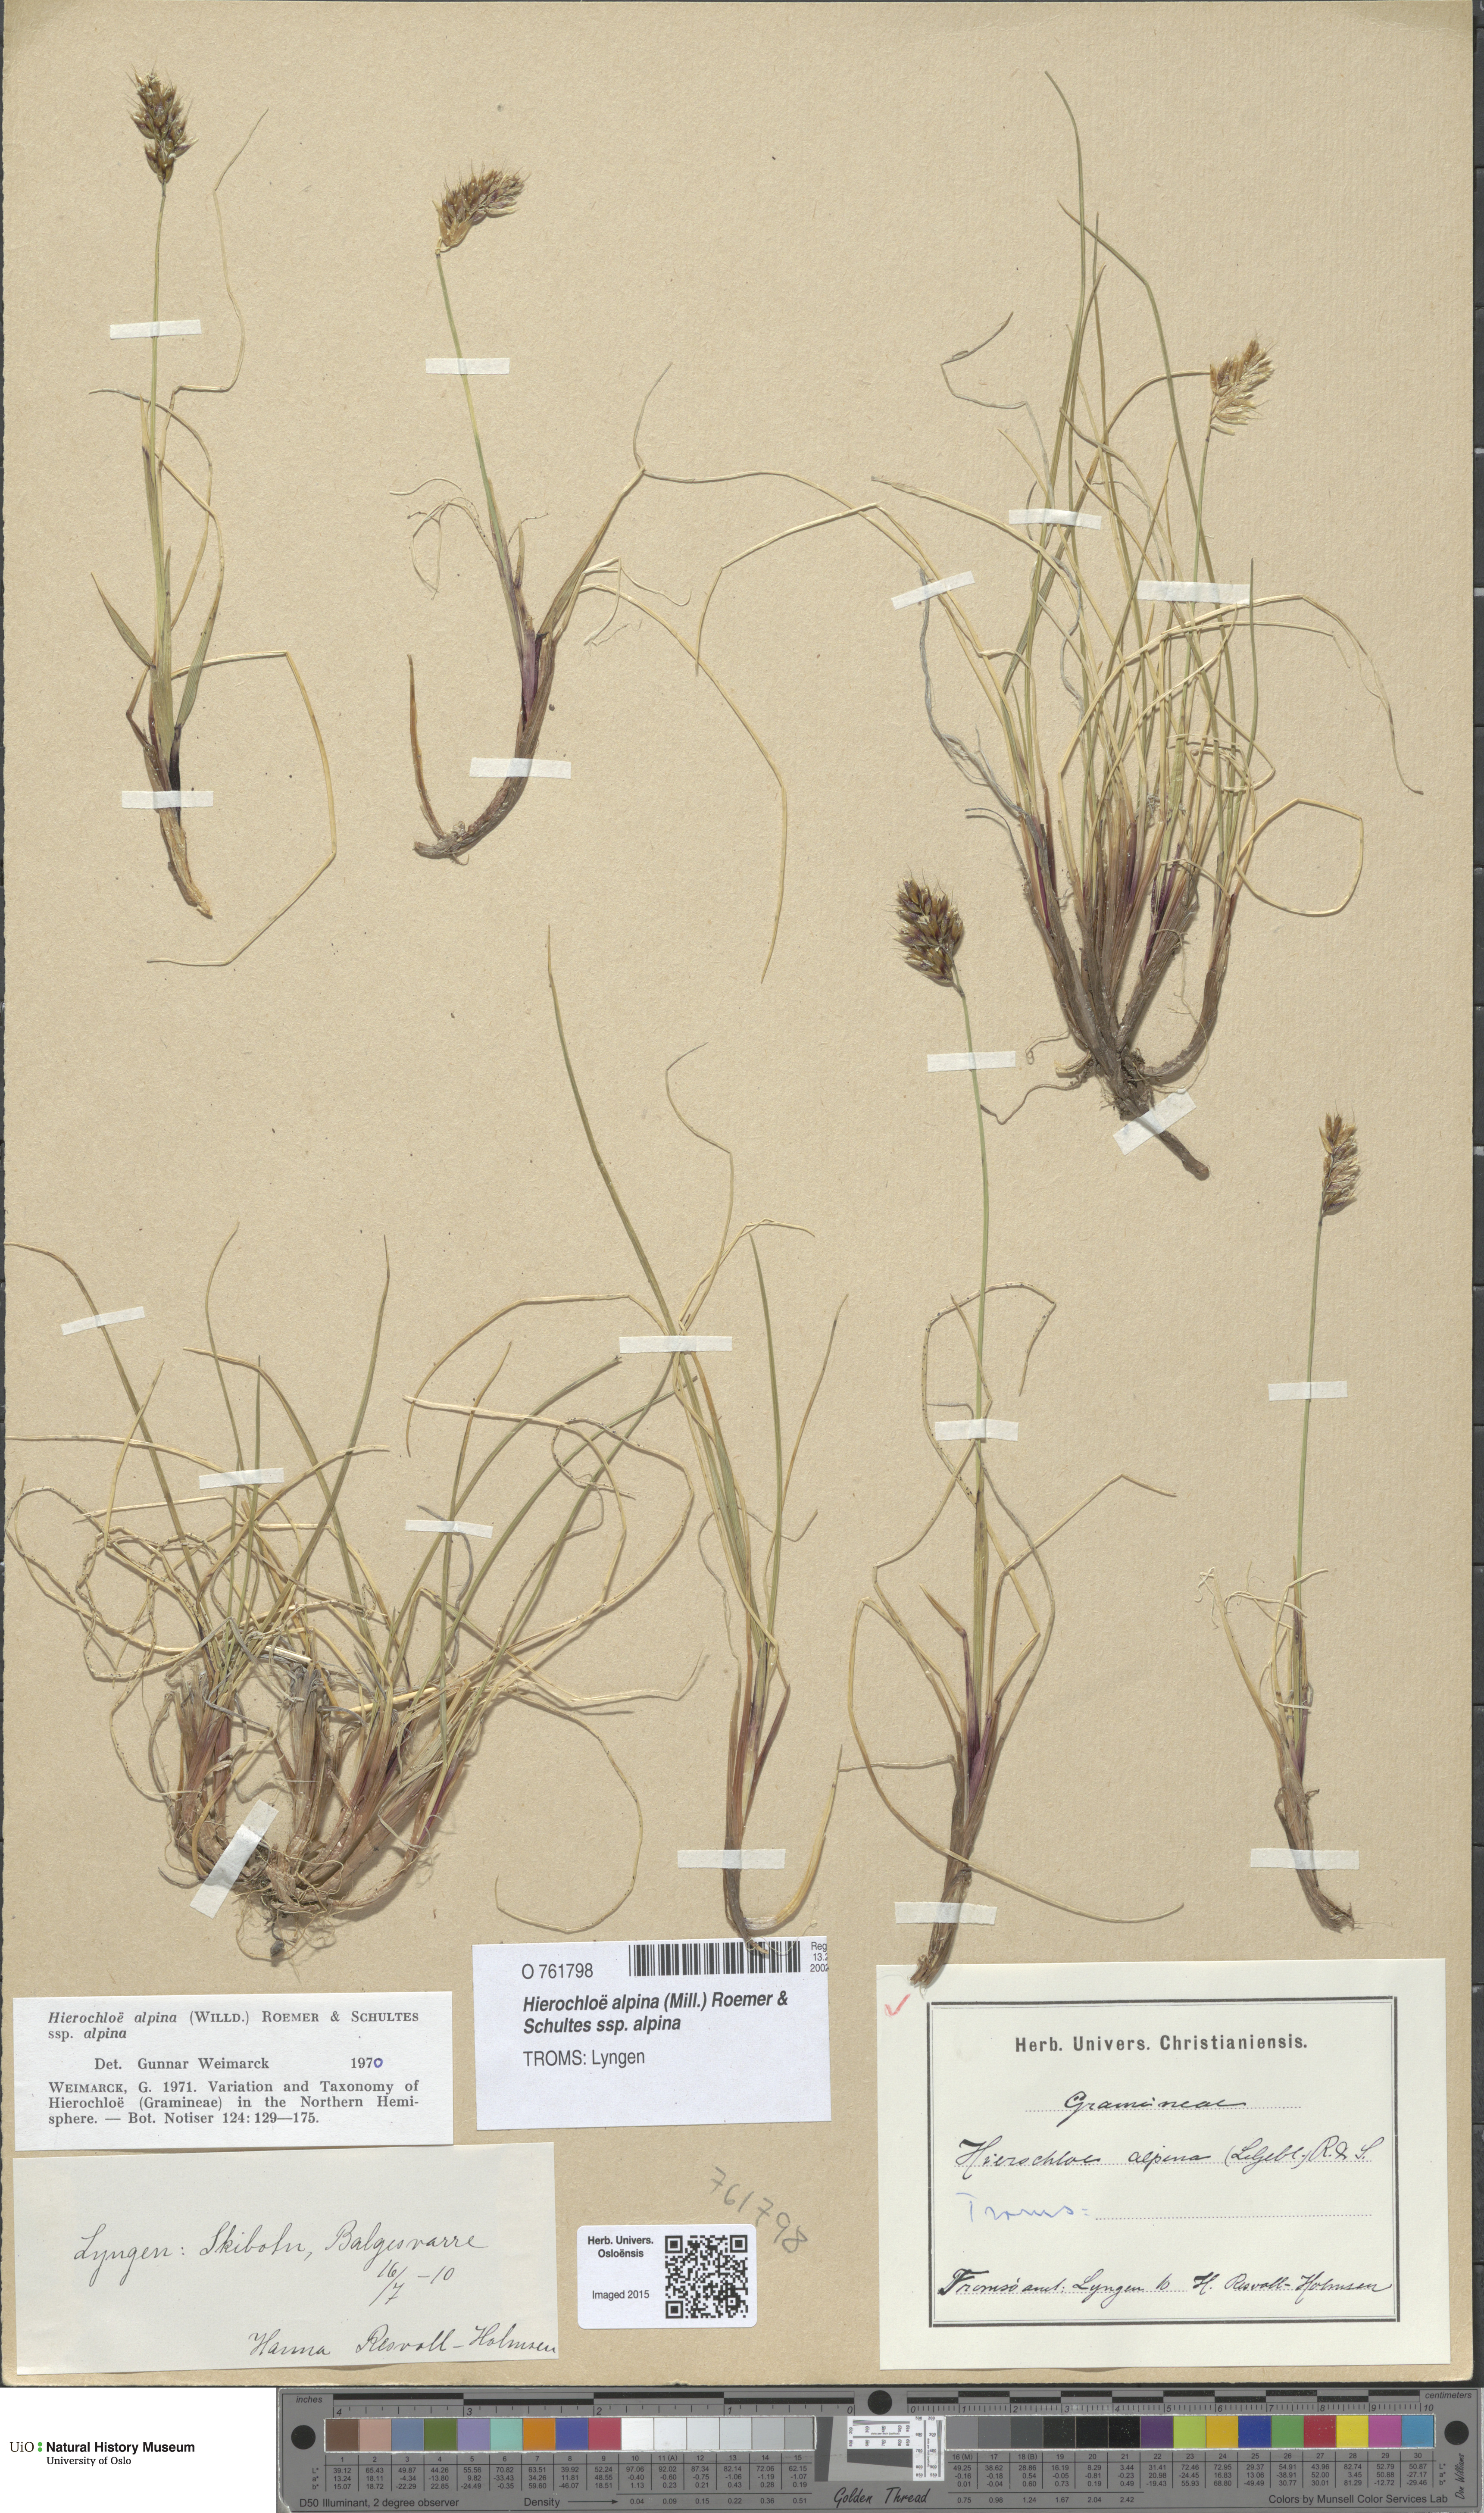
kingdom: Plantae
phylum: Tracheophyta
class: Liliopsida
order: Poales
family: Poaceae
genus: Anthoxanthum
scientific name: Anthoxanthum monticola
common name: Alpine sweetgrass
